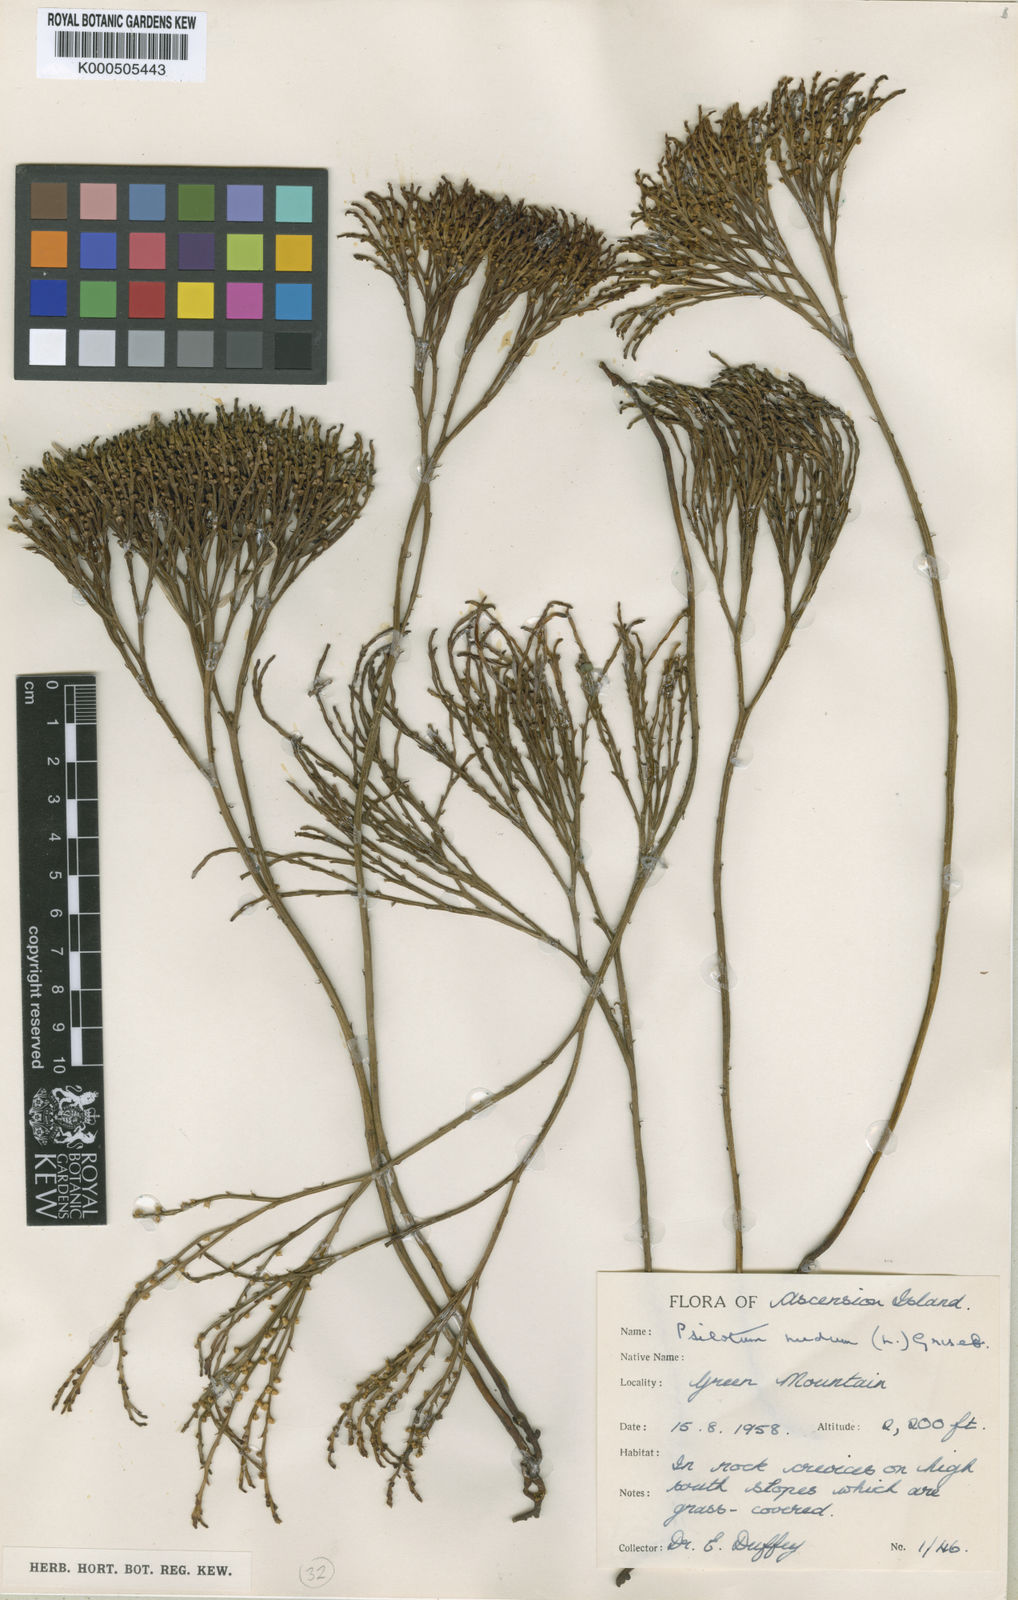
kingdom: Plantae
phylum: Tracheophyta
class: Polypodiopsida
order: Psilotales
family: Psilotaceae
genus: Psilotum
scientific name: Psilotum
